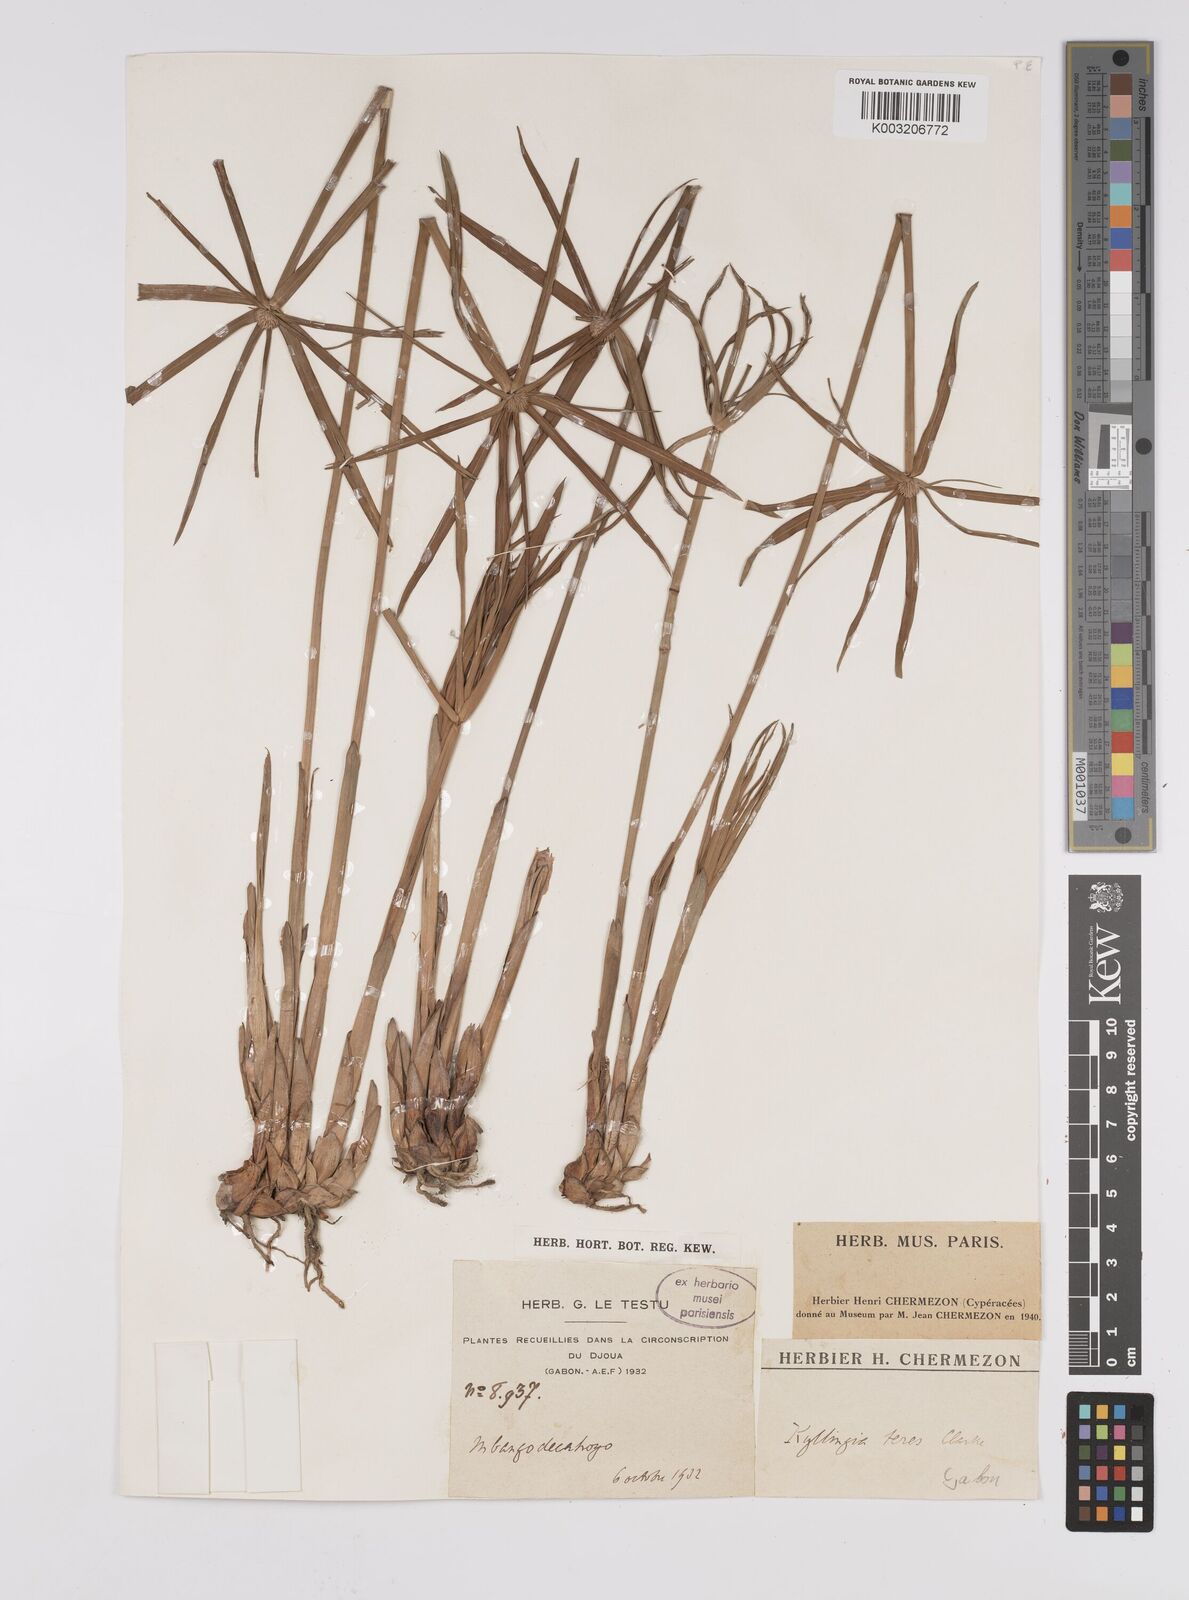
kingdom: Plantae
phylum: Tracheophyta
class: Liliopsida
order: Poales
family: Cyperaceae
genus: Cyperus
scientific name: Cyperus
